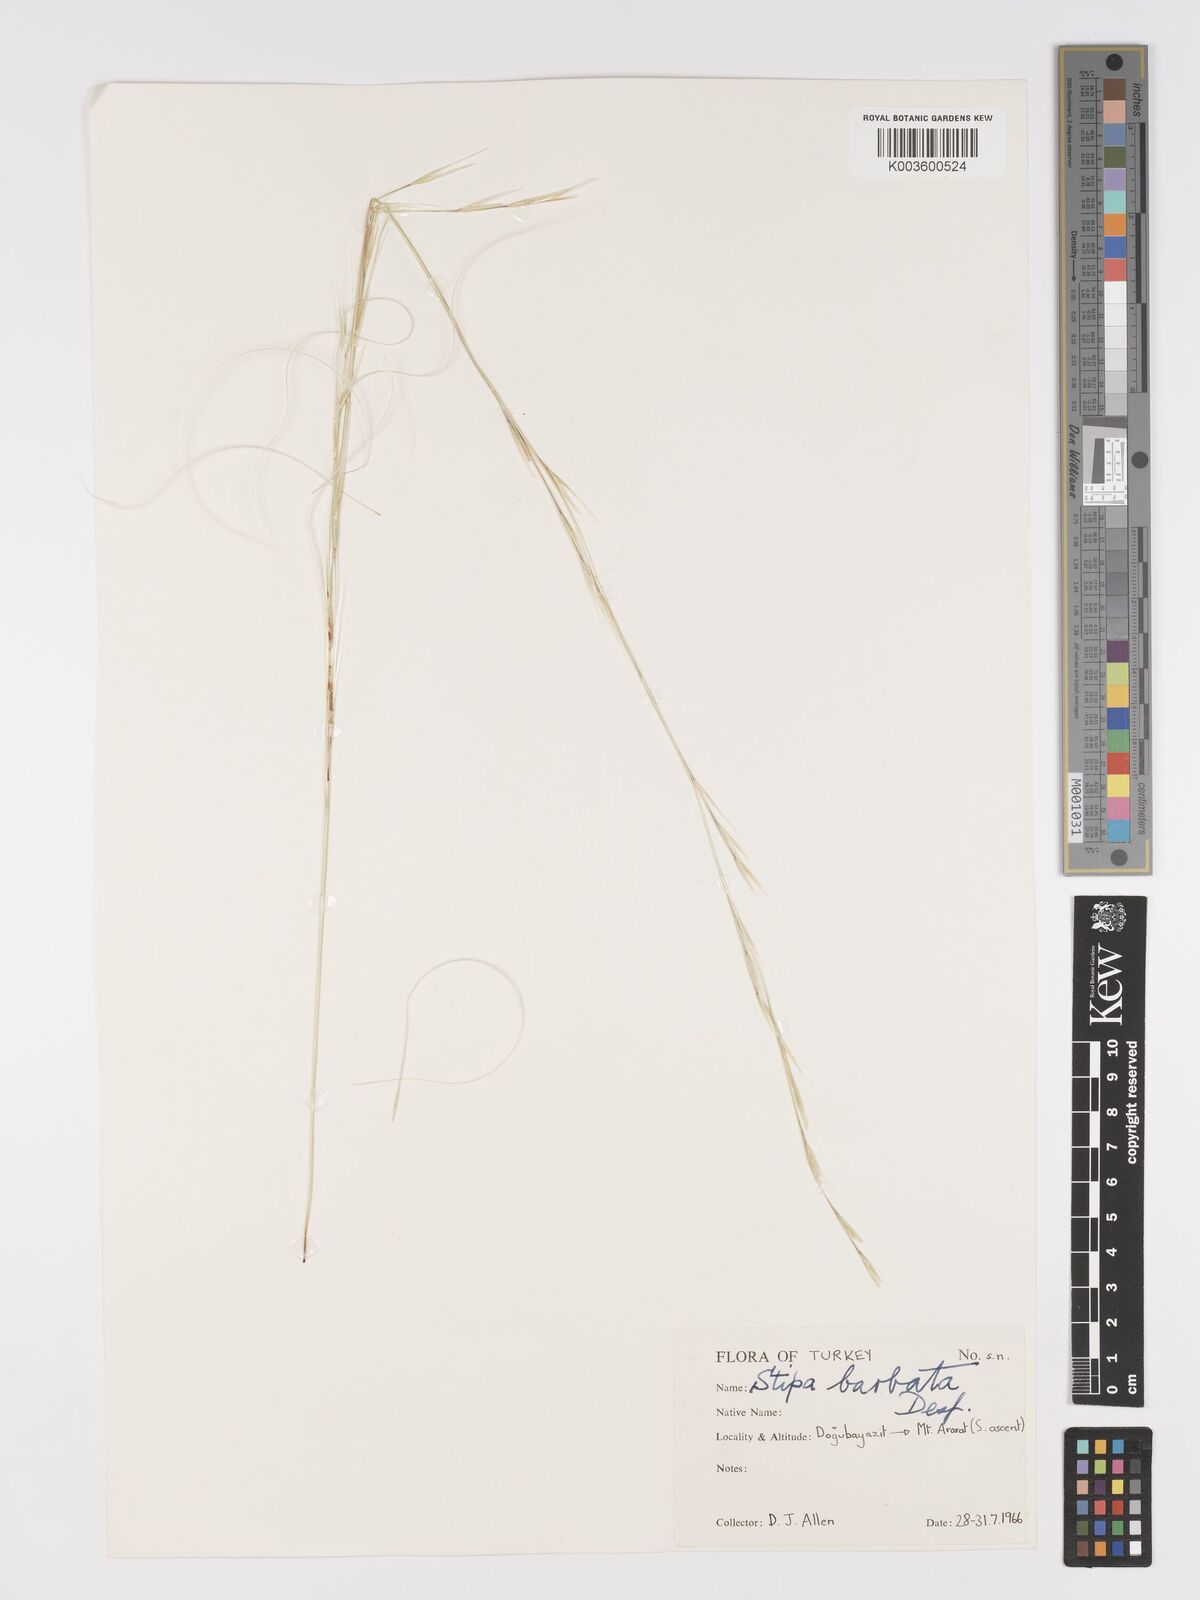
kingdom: Plantae
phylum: Tracheophyta
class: Liliopsida
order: Poales
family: Poaceae
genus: Stipa
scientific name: Stipa barbata
